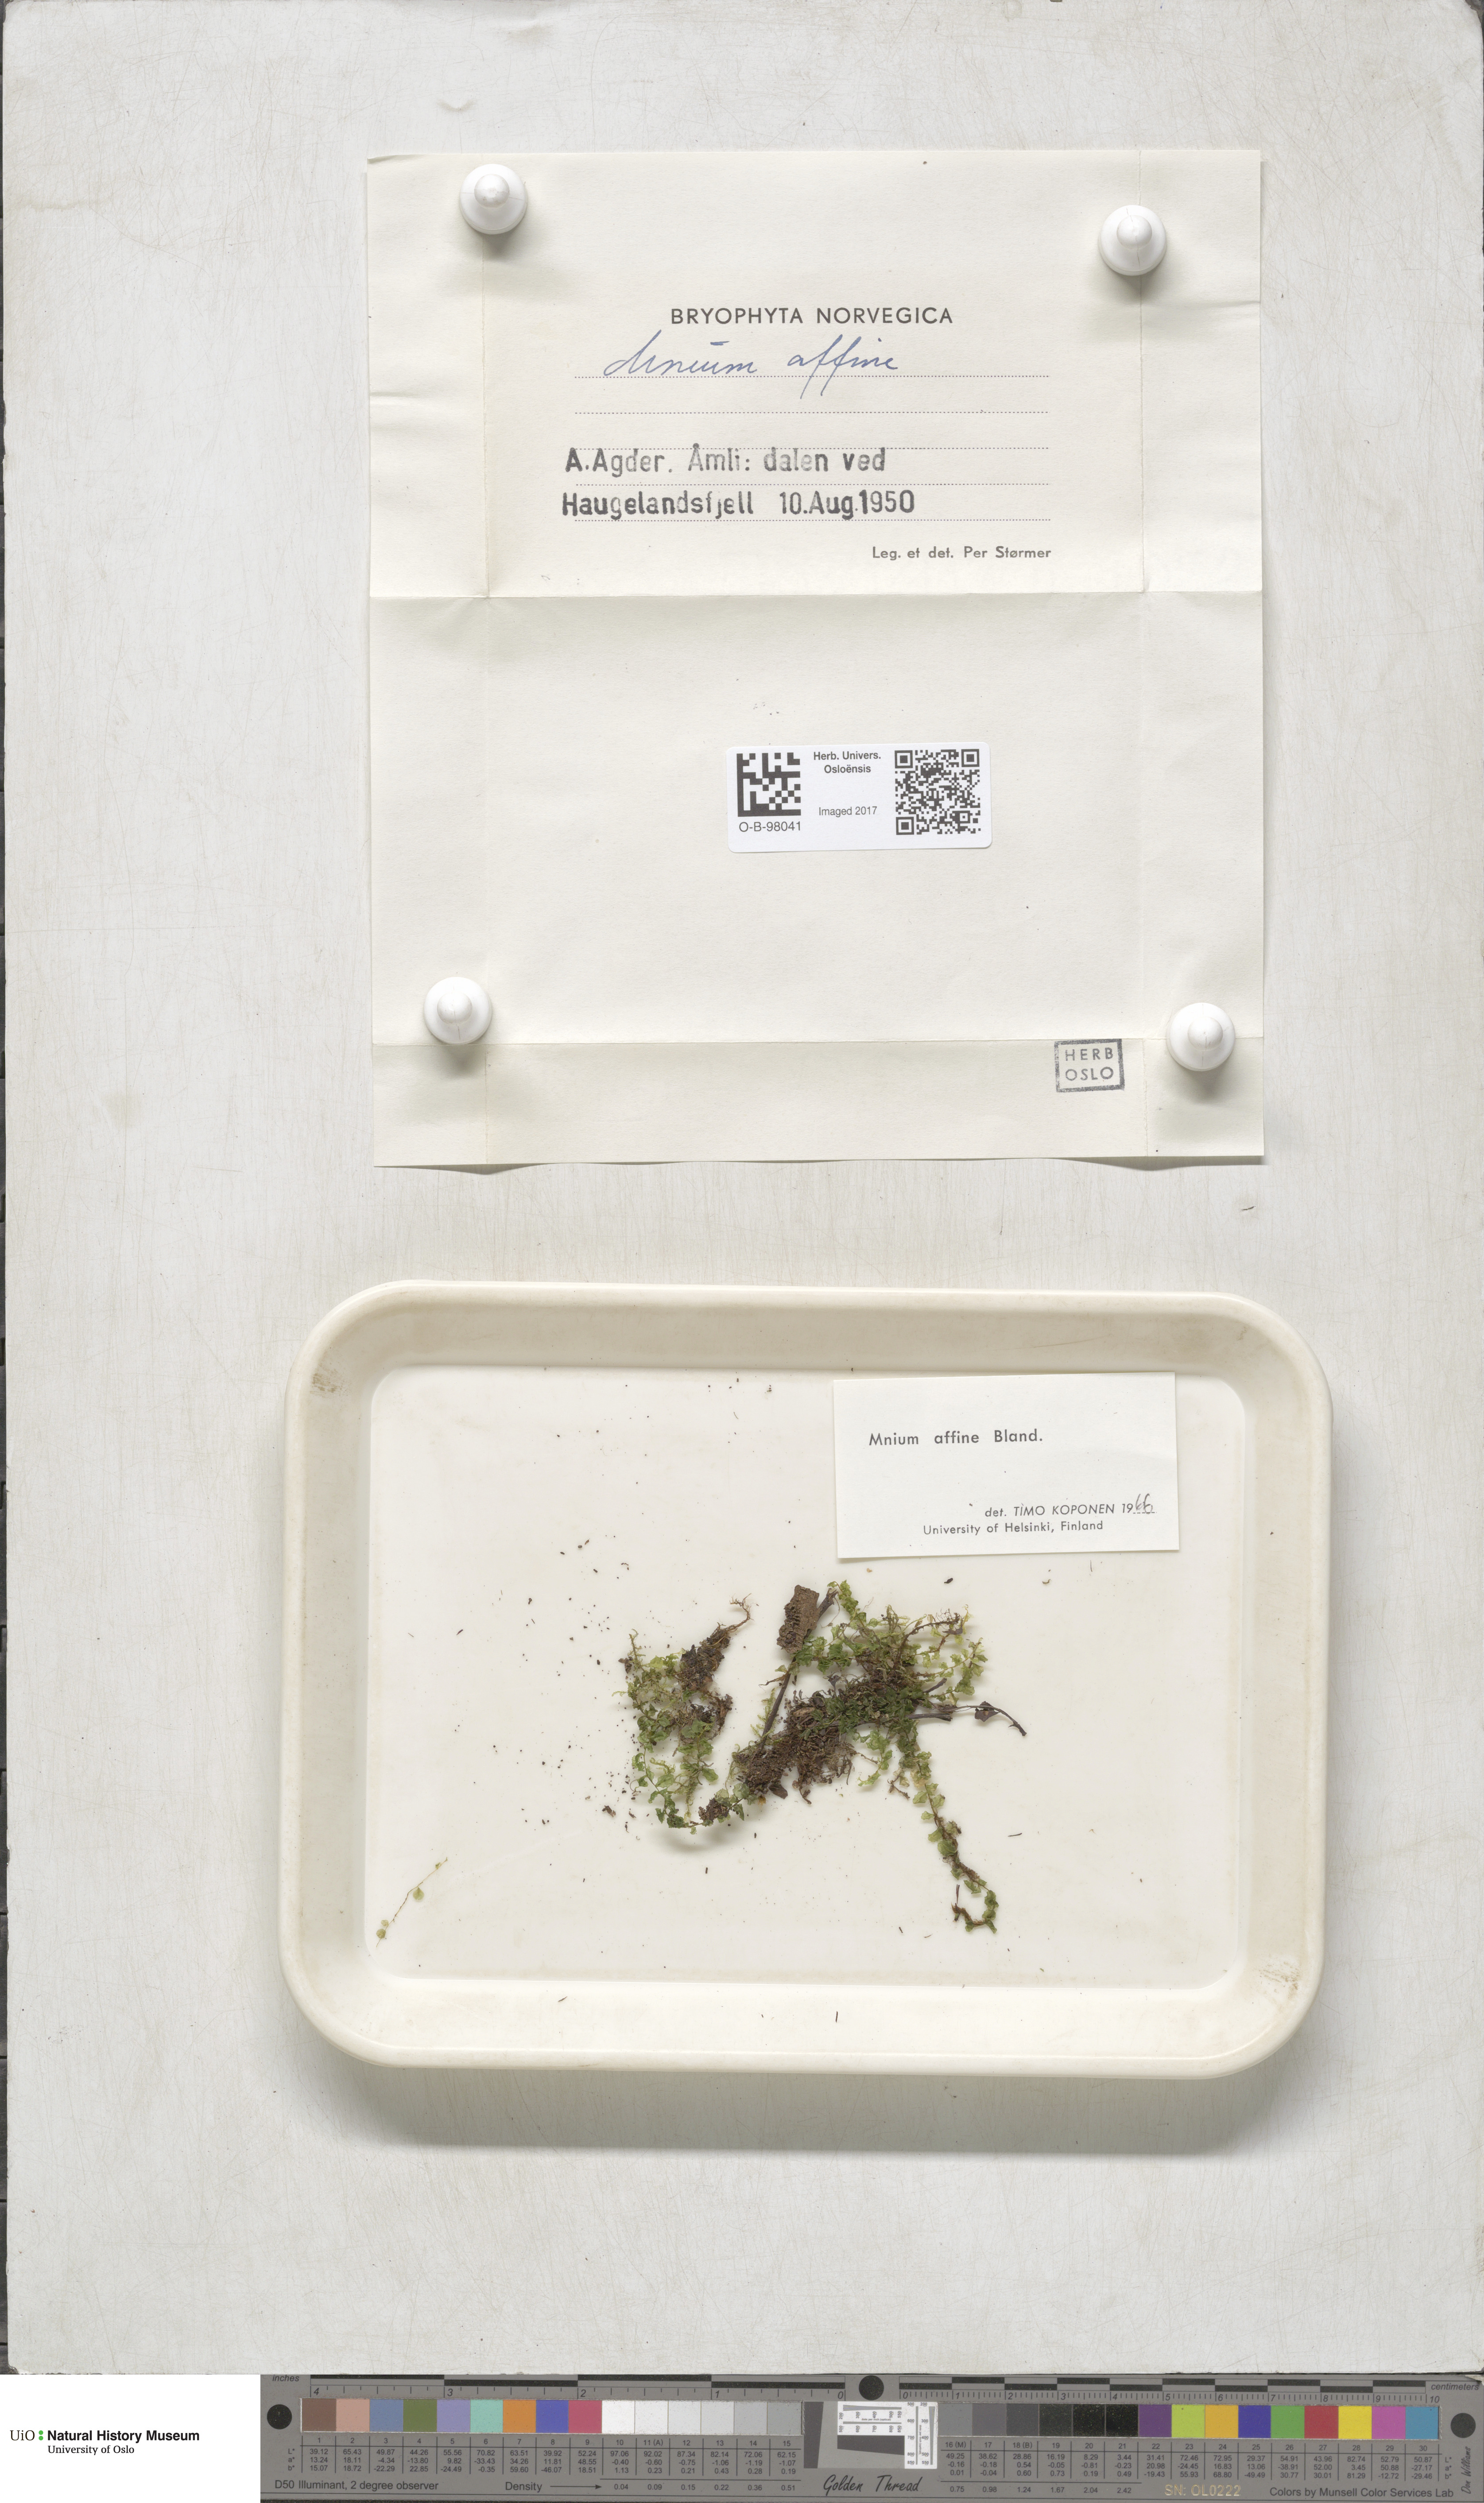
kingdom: Plantae
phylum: Bryophyta
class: Bryopsida
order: Bryales
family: Mniaceae
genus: Plagiomnium
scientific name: Plagiomnium affine
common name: Many-fruited thyme-moss
